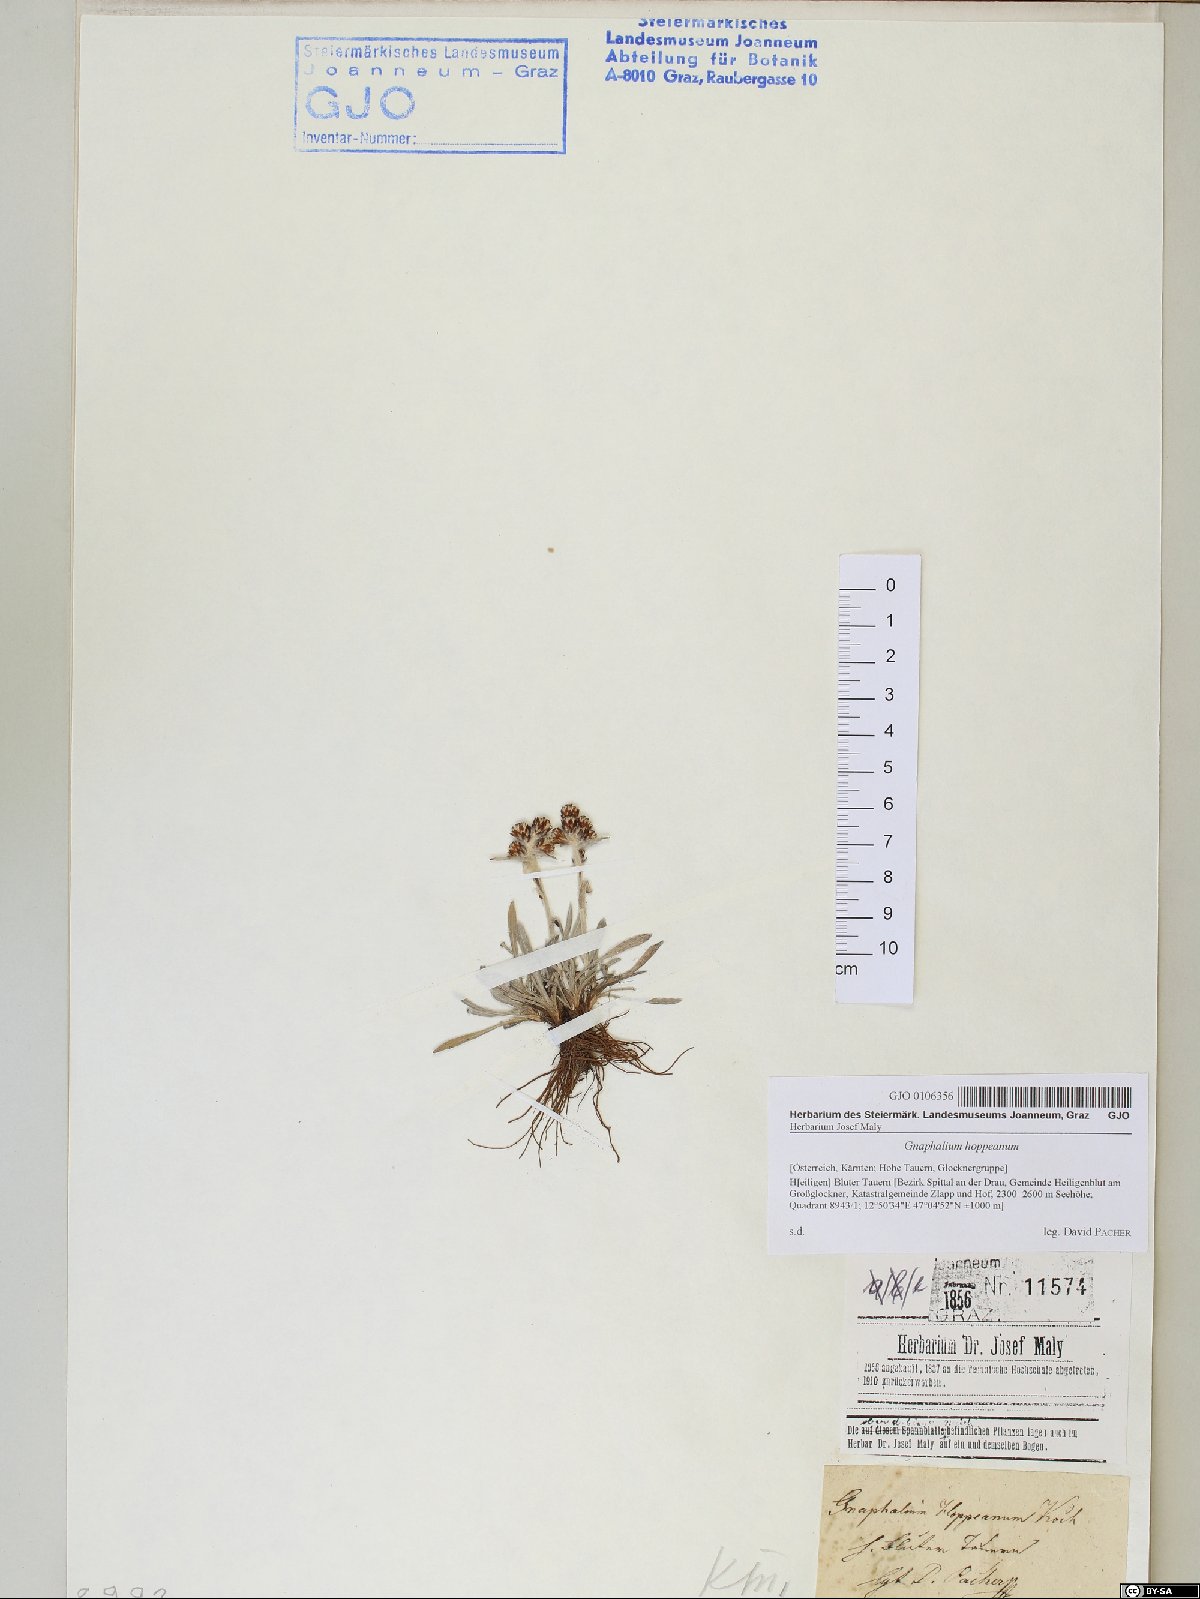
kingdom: Plantae
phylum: Tracheophyta
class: Magnoliopsida
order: Asterales
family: Asteraceae
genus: Omalotheca
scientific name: Omalotheca hoppeana
